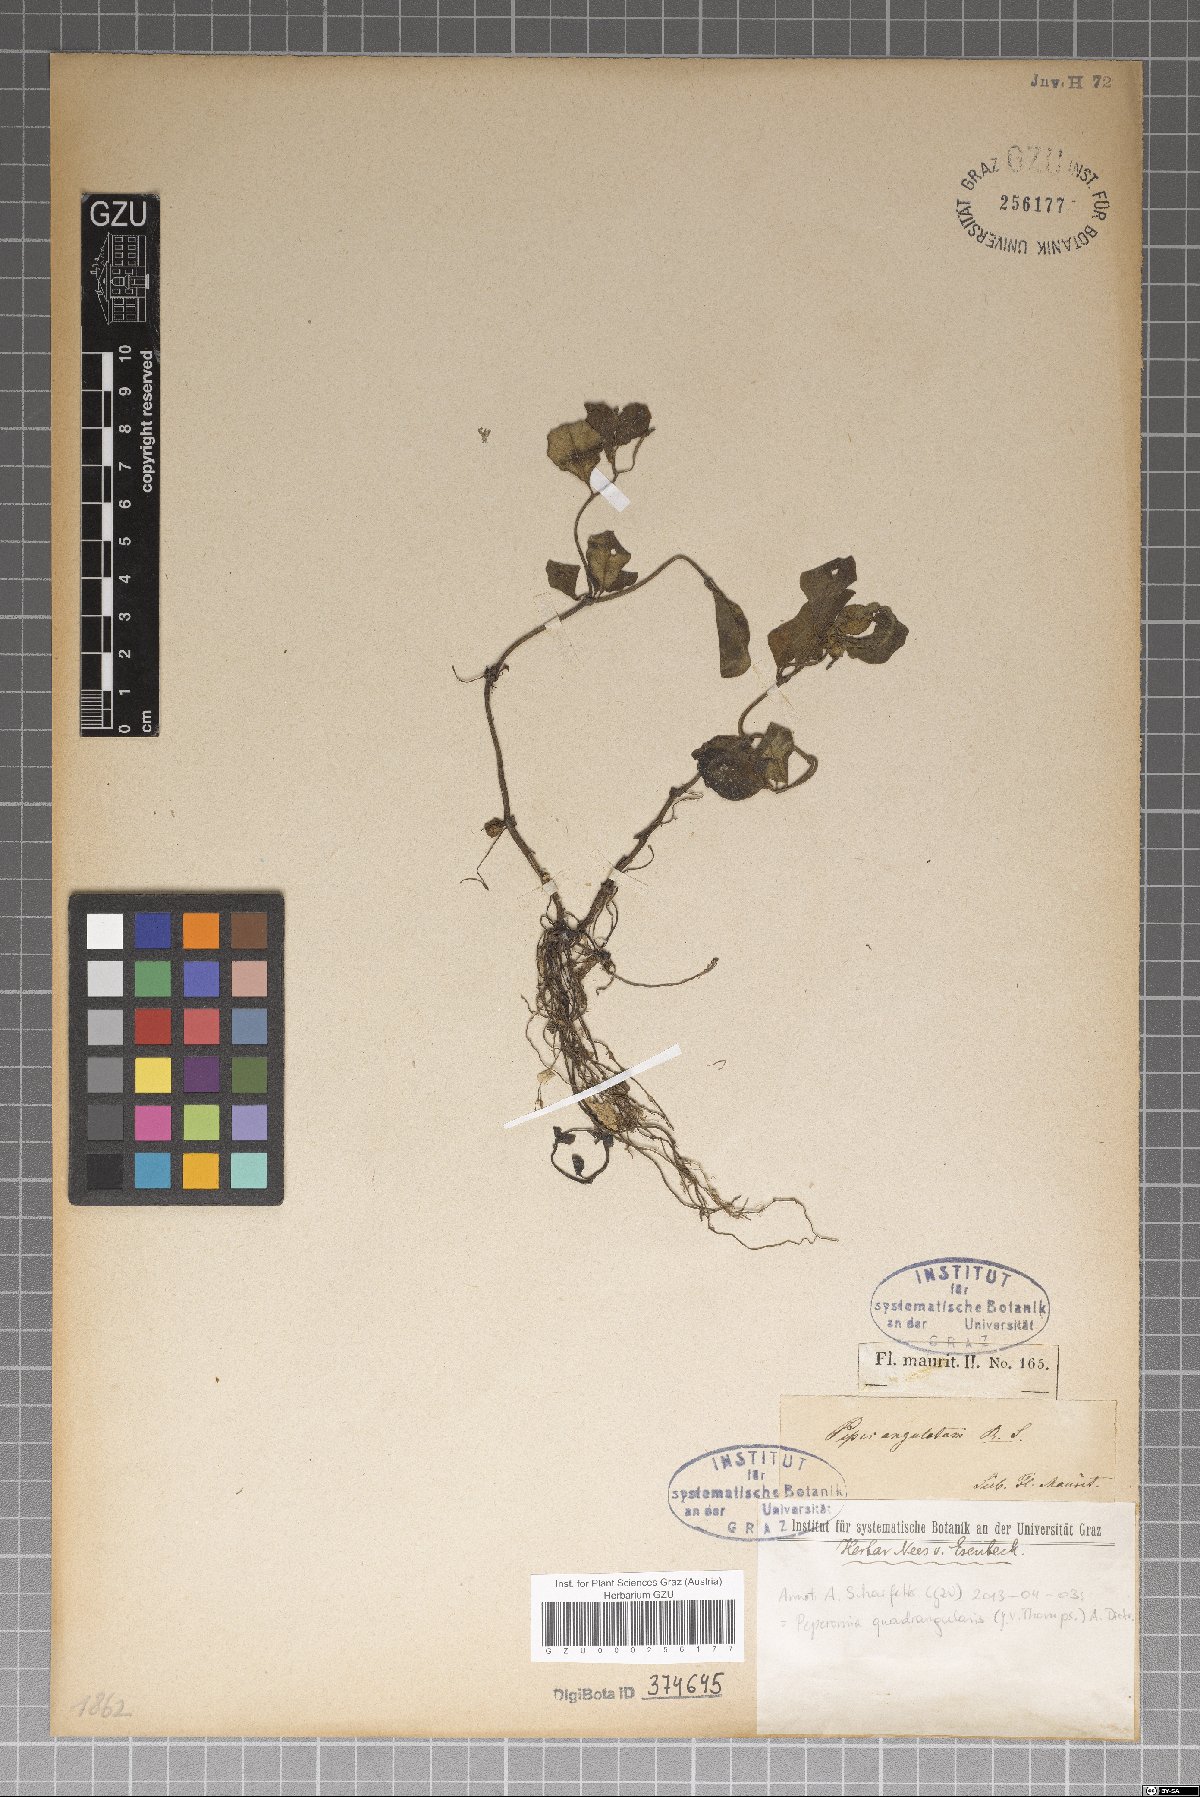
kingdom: Plantae
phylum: Tracheophyta
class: Magnoliopsida
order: Piperales
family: Piperaceae
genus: Peperomia
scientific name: Peperomia quadrangularis
